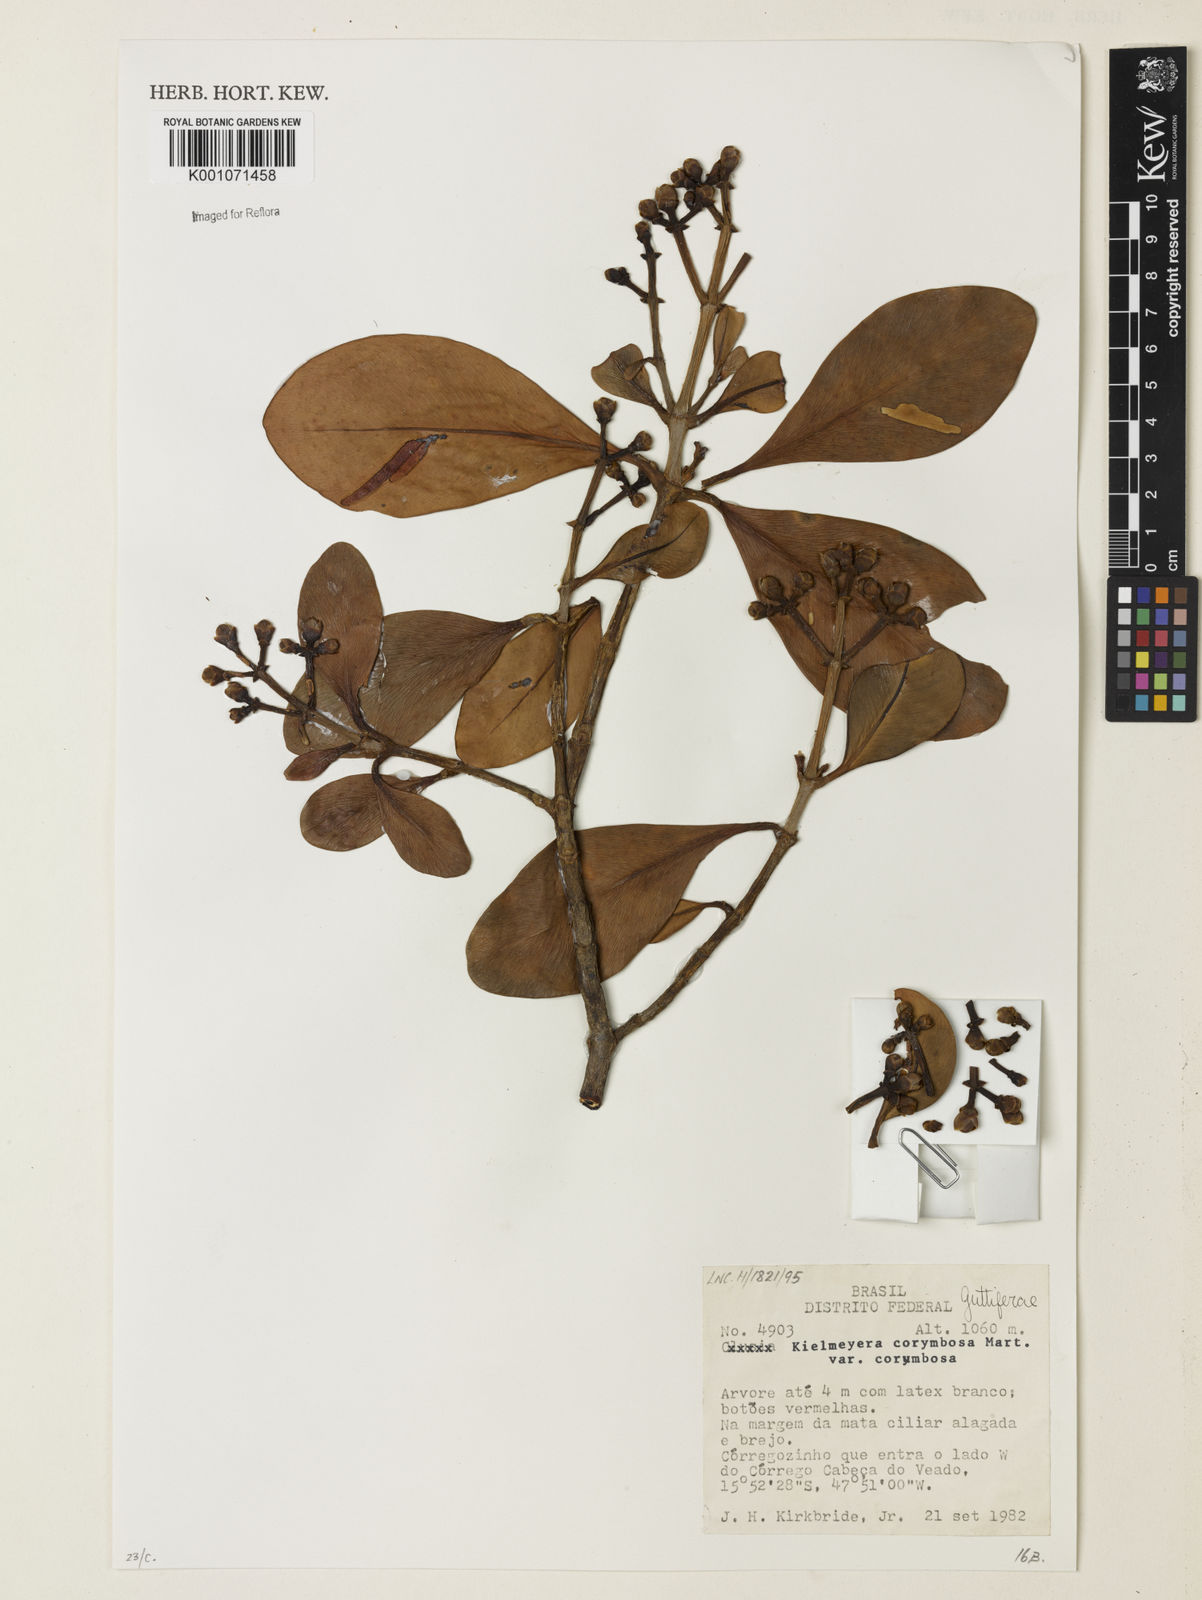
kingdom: Plantae
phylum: Tracheophyta
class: Magnoliopsida
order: Malpighiales
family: Calophyllaceae
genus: Kielmeyera
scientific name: Kielmeyera corymbosa
